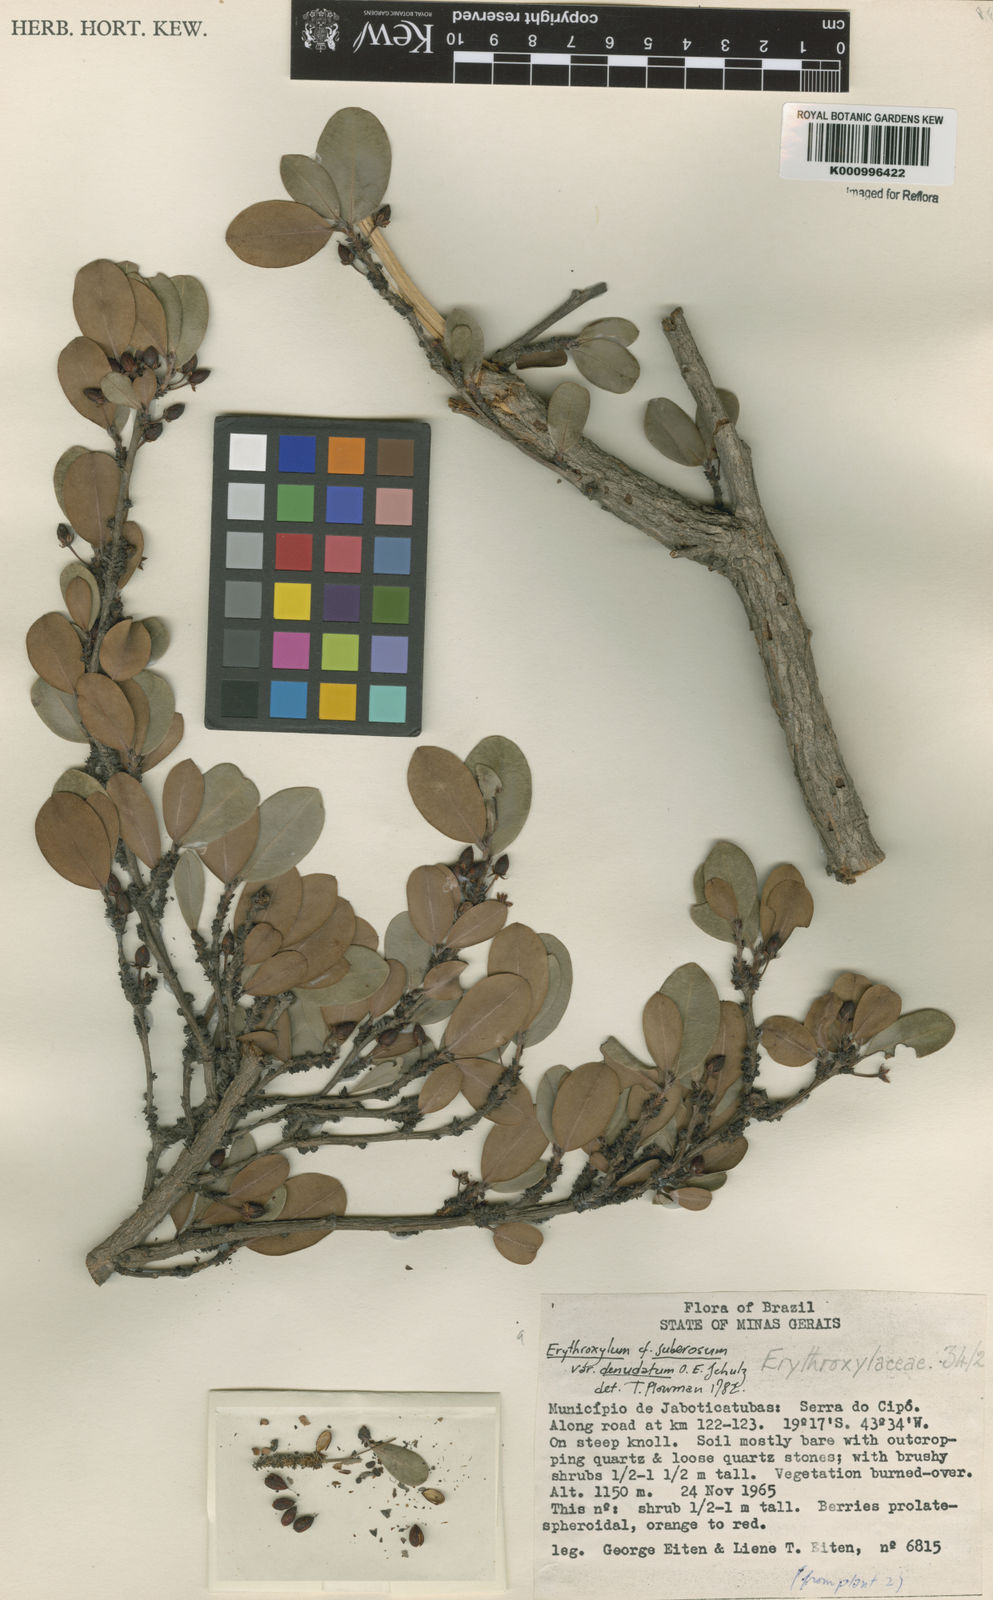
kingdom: Plantae
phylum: Tracheophyta
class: Magnoliopsida
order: Malpighiales
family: Erythroxylaceae
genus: Erythroxylum
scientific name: Erythroxylum rimosum
